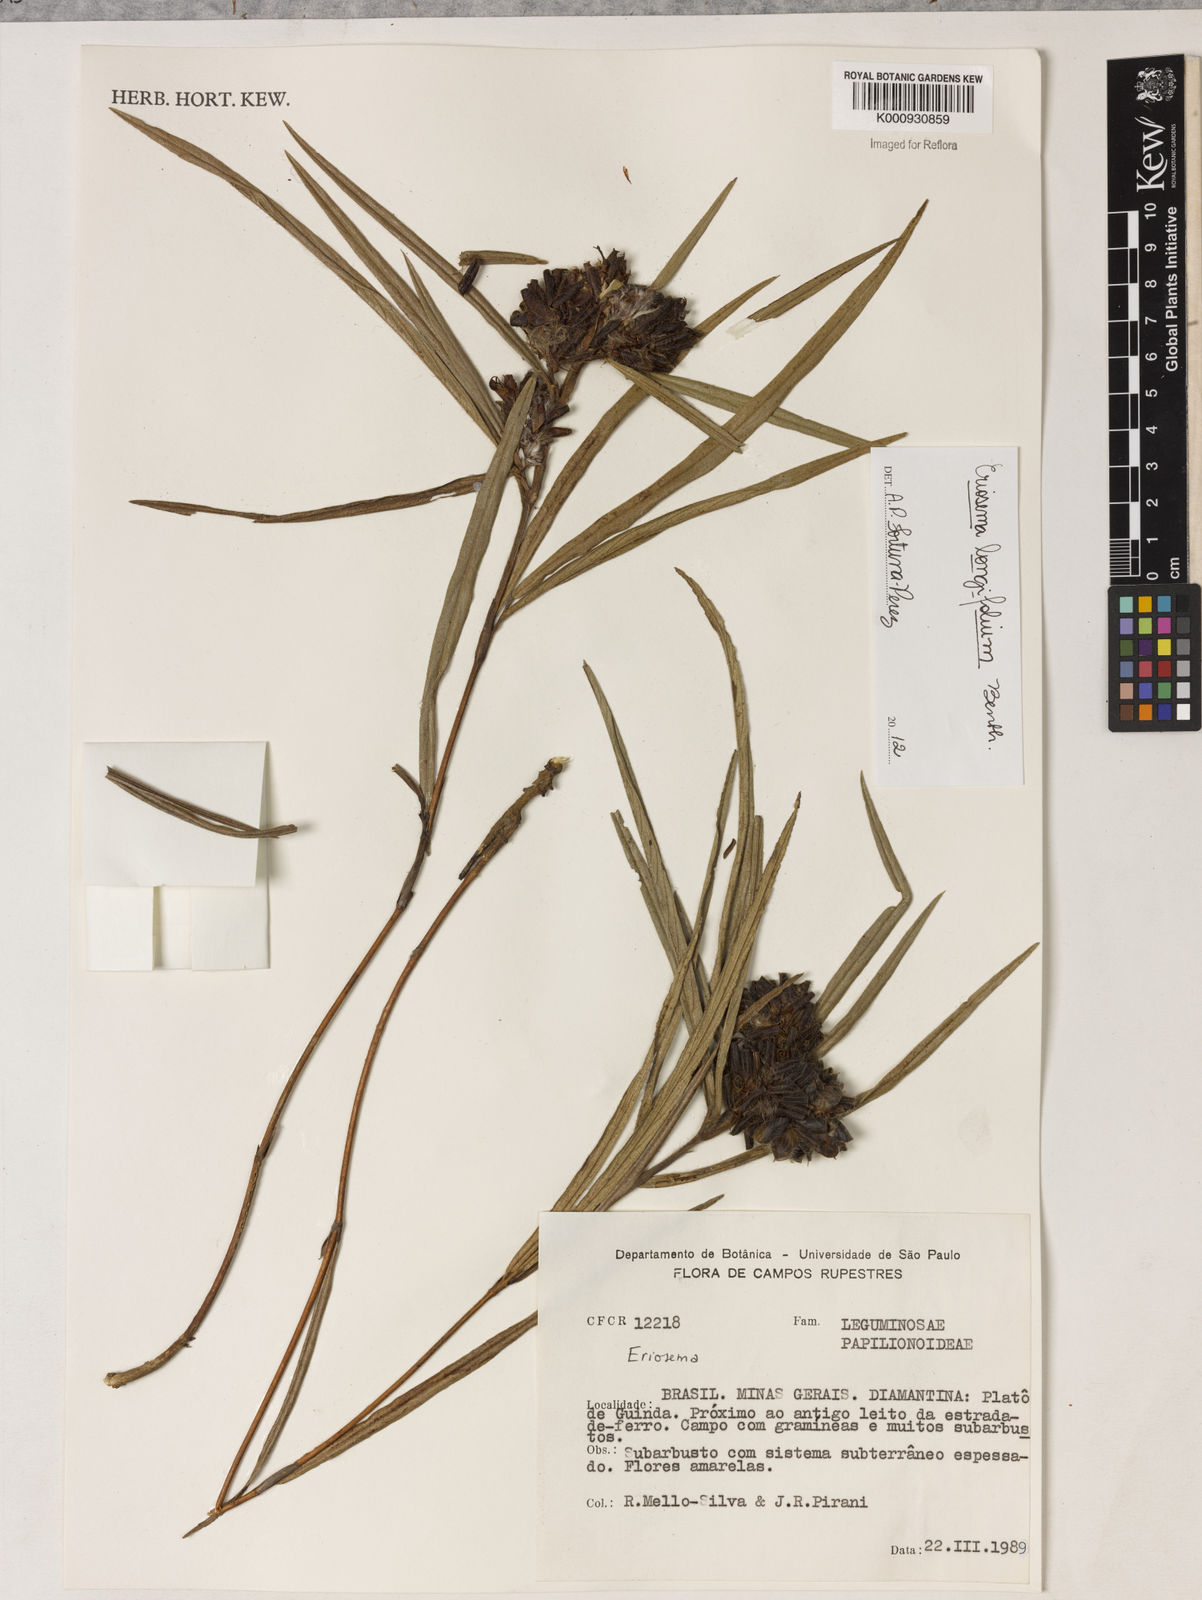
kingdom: Plantae
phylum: Tracheophyta
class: Magnoliopsida
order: Fabales
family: Fabaceae
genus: Eriosema
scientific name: Eriosema longifolium
